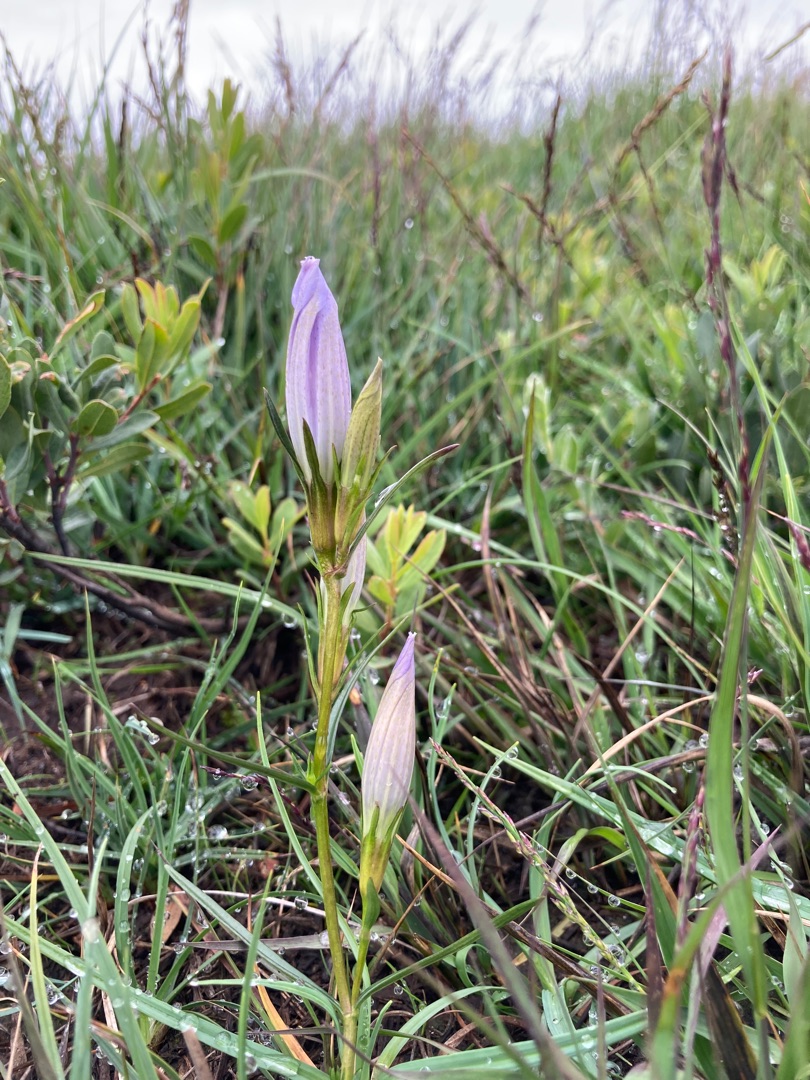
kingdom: Plantae
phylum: Tracheophyta
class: Magnoliopsida
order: Gentianales
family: Gentianaceae
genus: Gentiana
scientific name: Gentiana pneumonanthe
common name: Klokke-ensian
